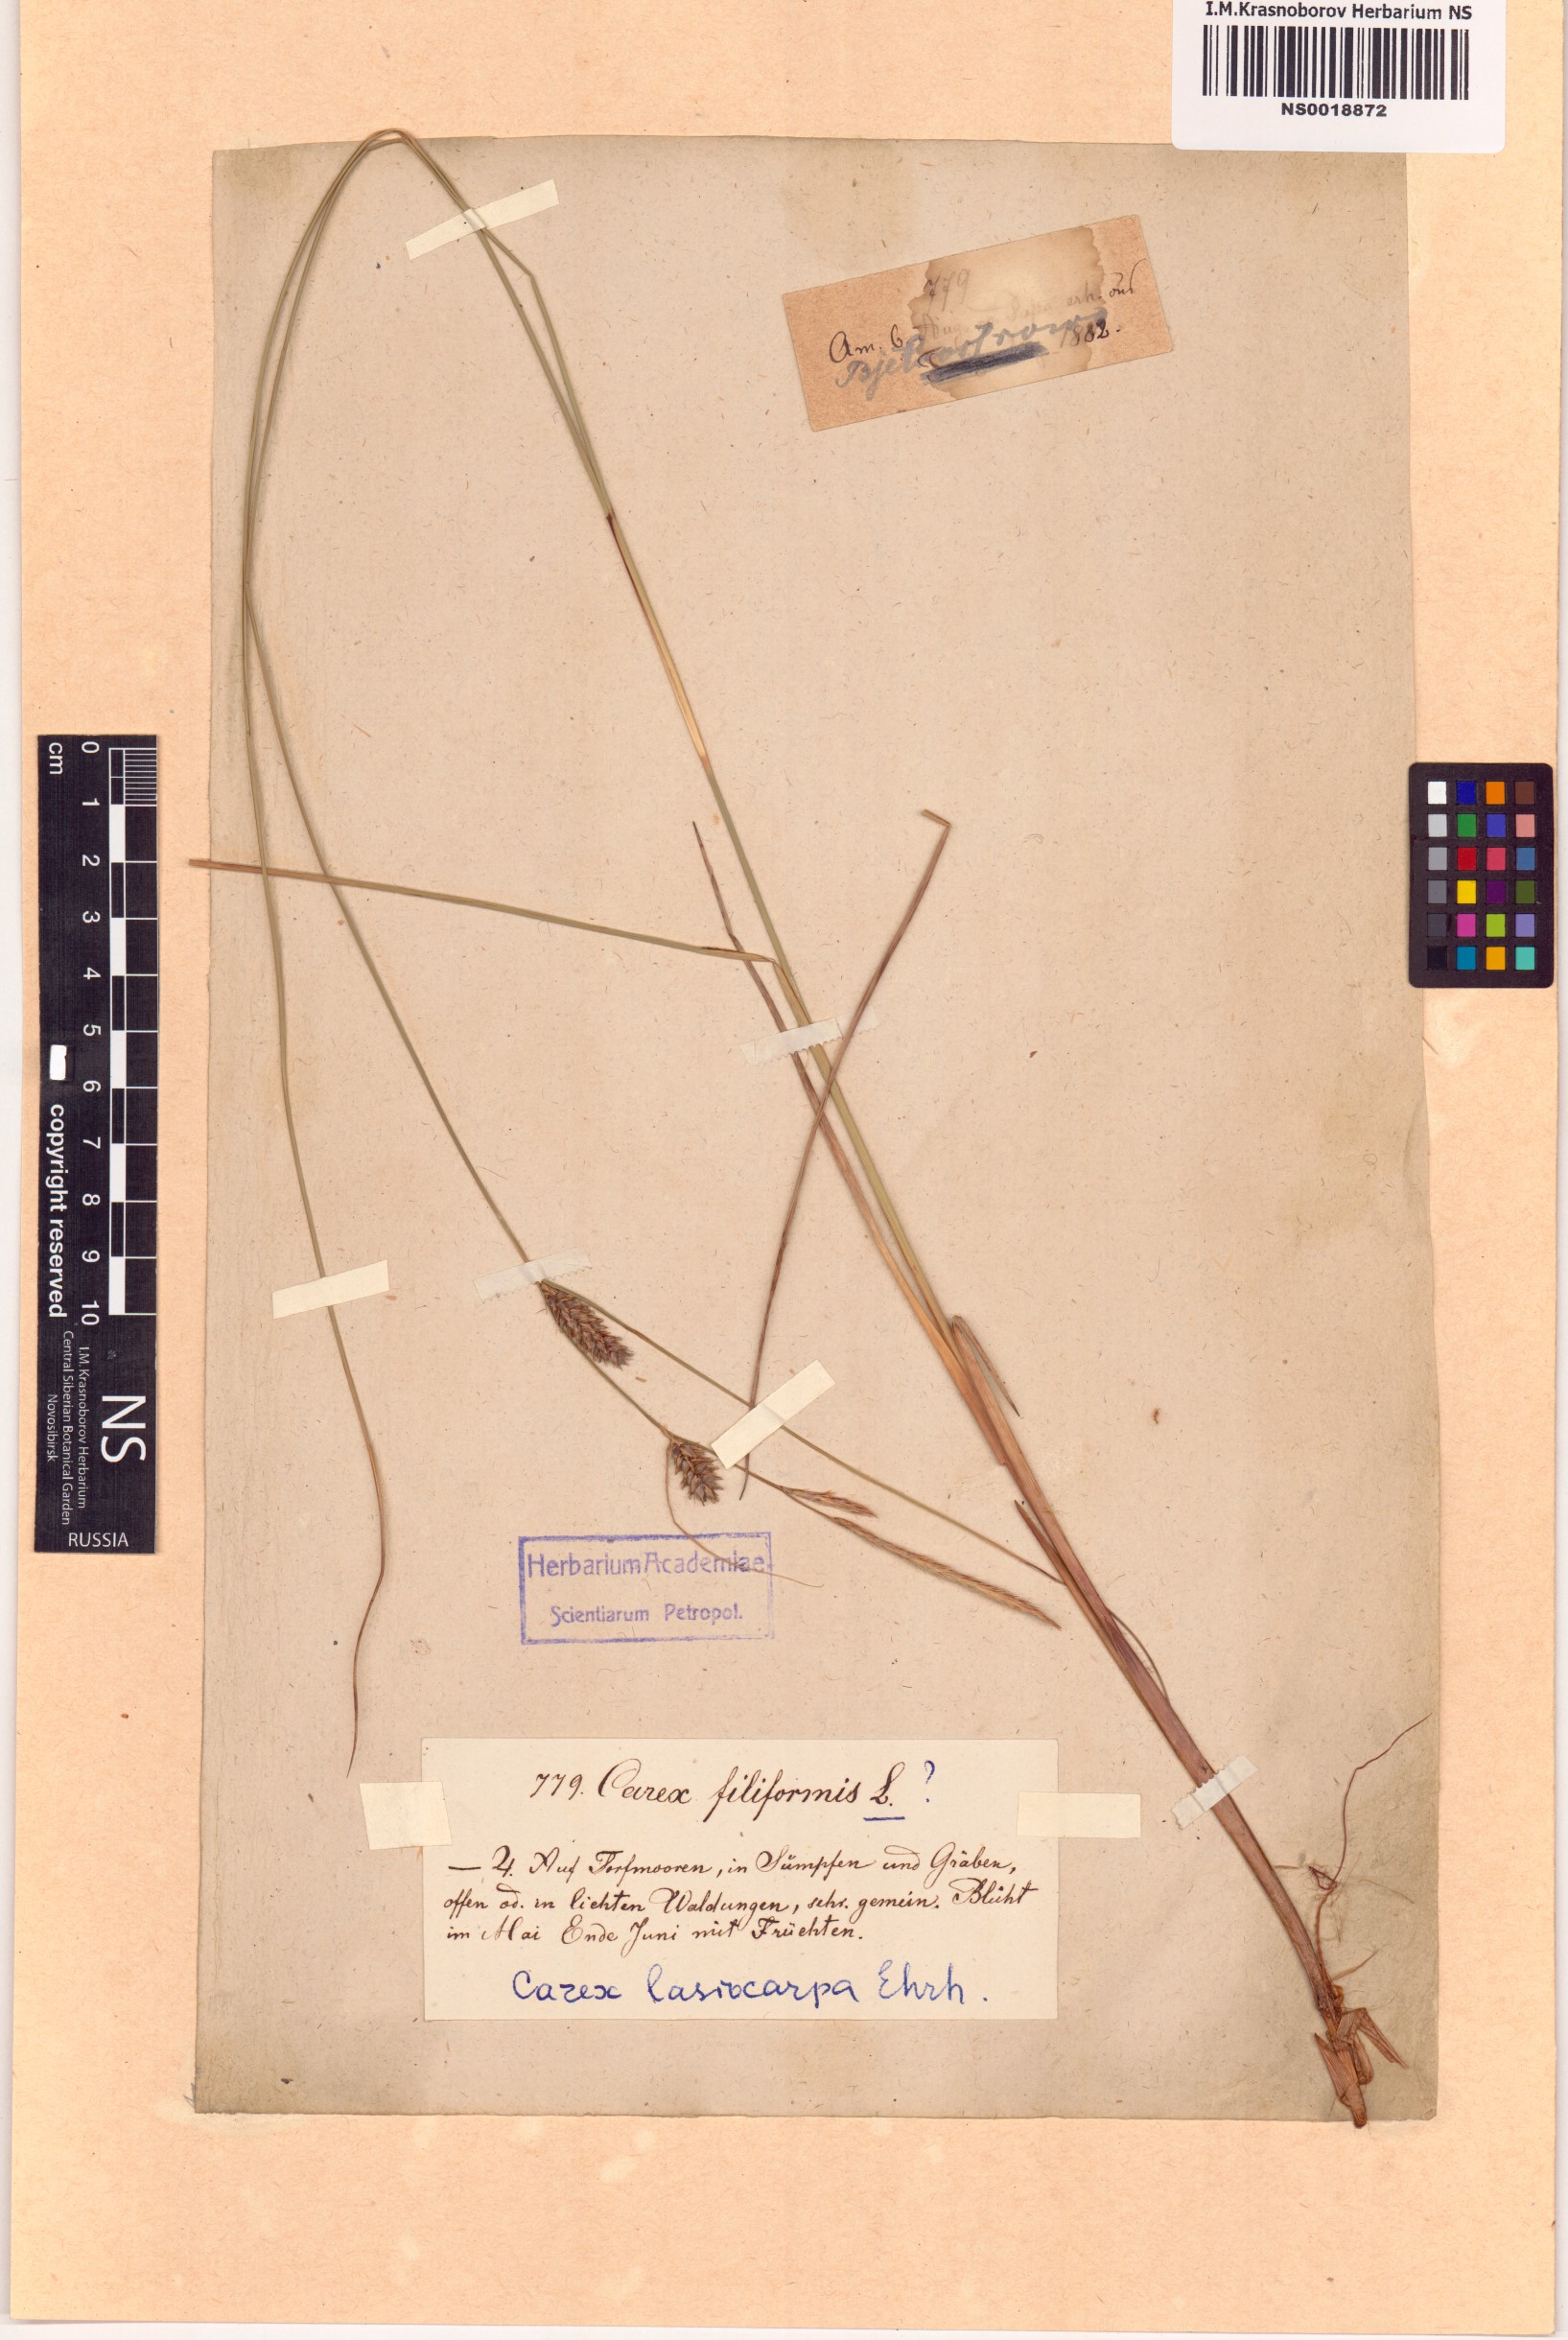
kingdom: Plantae
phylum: Tracheophyta
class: Liliopsida
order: Poales
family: Cyperaceae
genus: Carex
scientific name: Carex lasiocarpa
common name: Slender sedge
